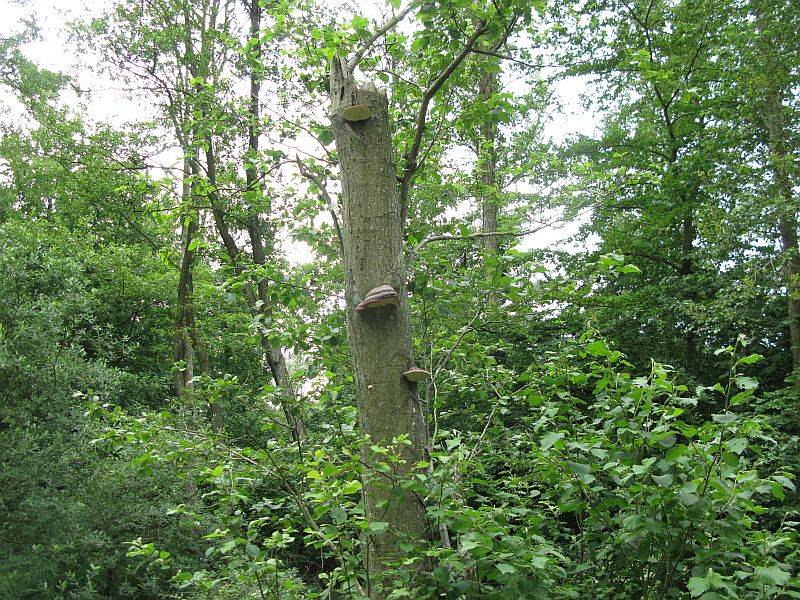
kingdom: Fungi
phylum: Basidiomycota
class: Agaricomycetes
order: Polyporales
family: Fomitopsidaceae
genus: Fomitopsis
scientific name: Fomitopsis pinicola
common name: randbæltet hovporesvamp
